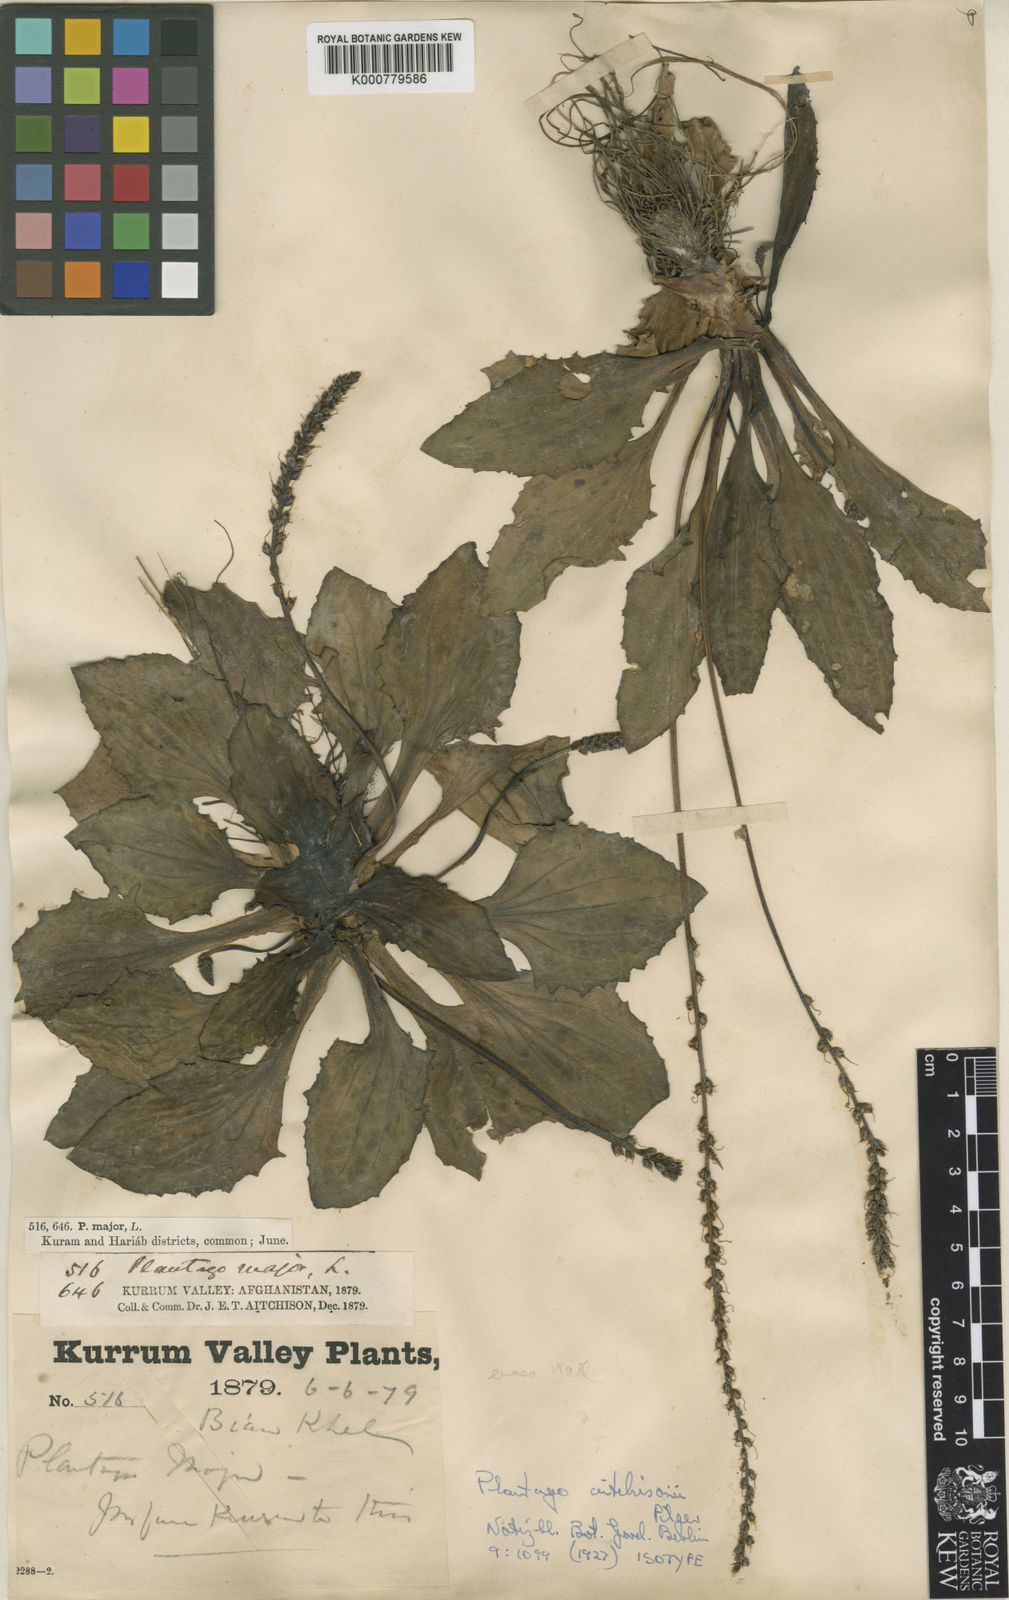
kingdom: Plantae
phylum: Tracheophyta
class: Magnoliopsida
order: Lamiales
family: Plantaginaceae
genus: Plantago
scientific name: Plantago major
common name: Common plantain
